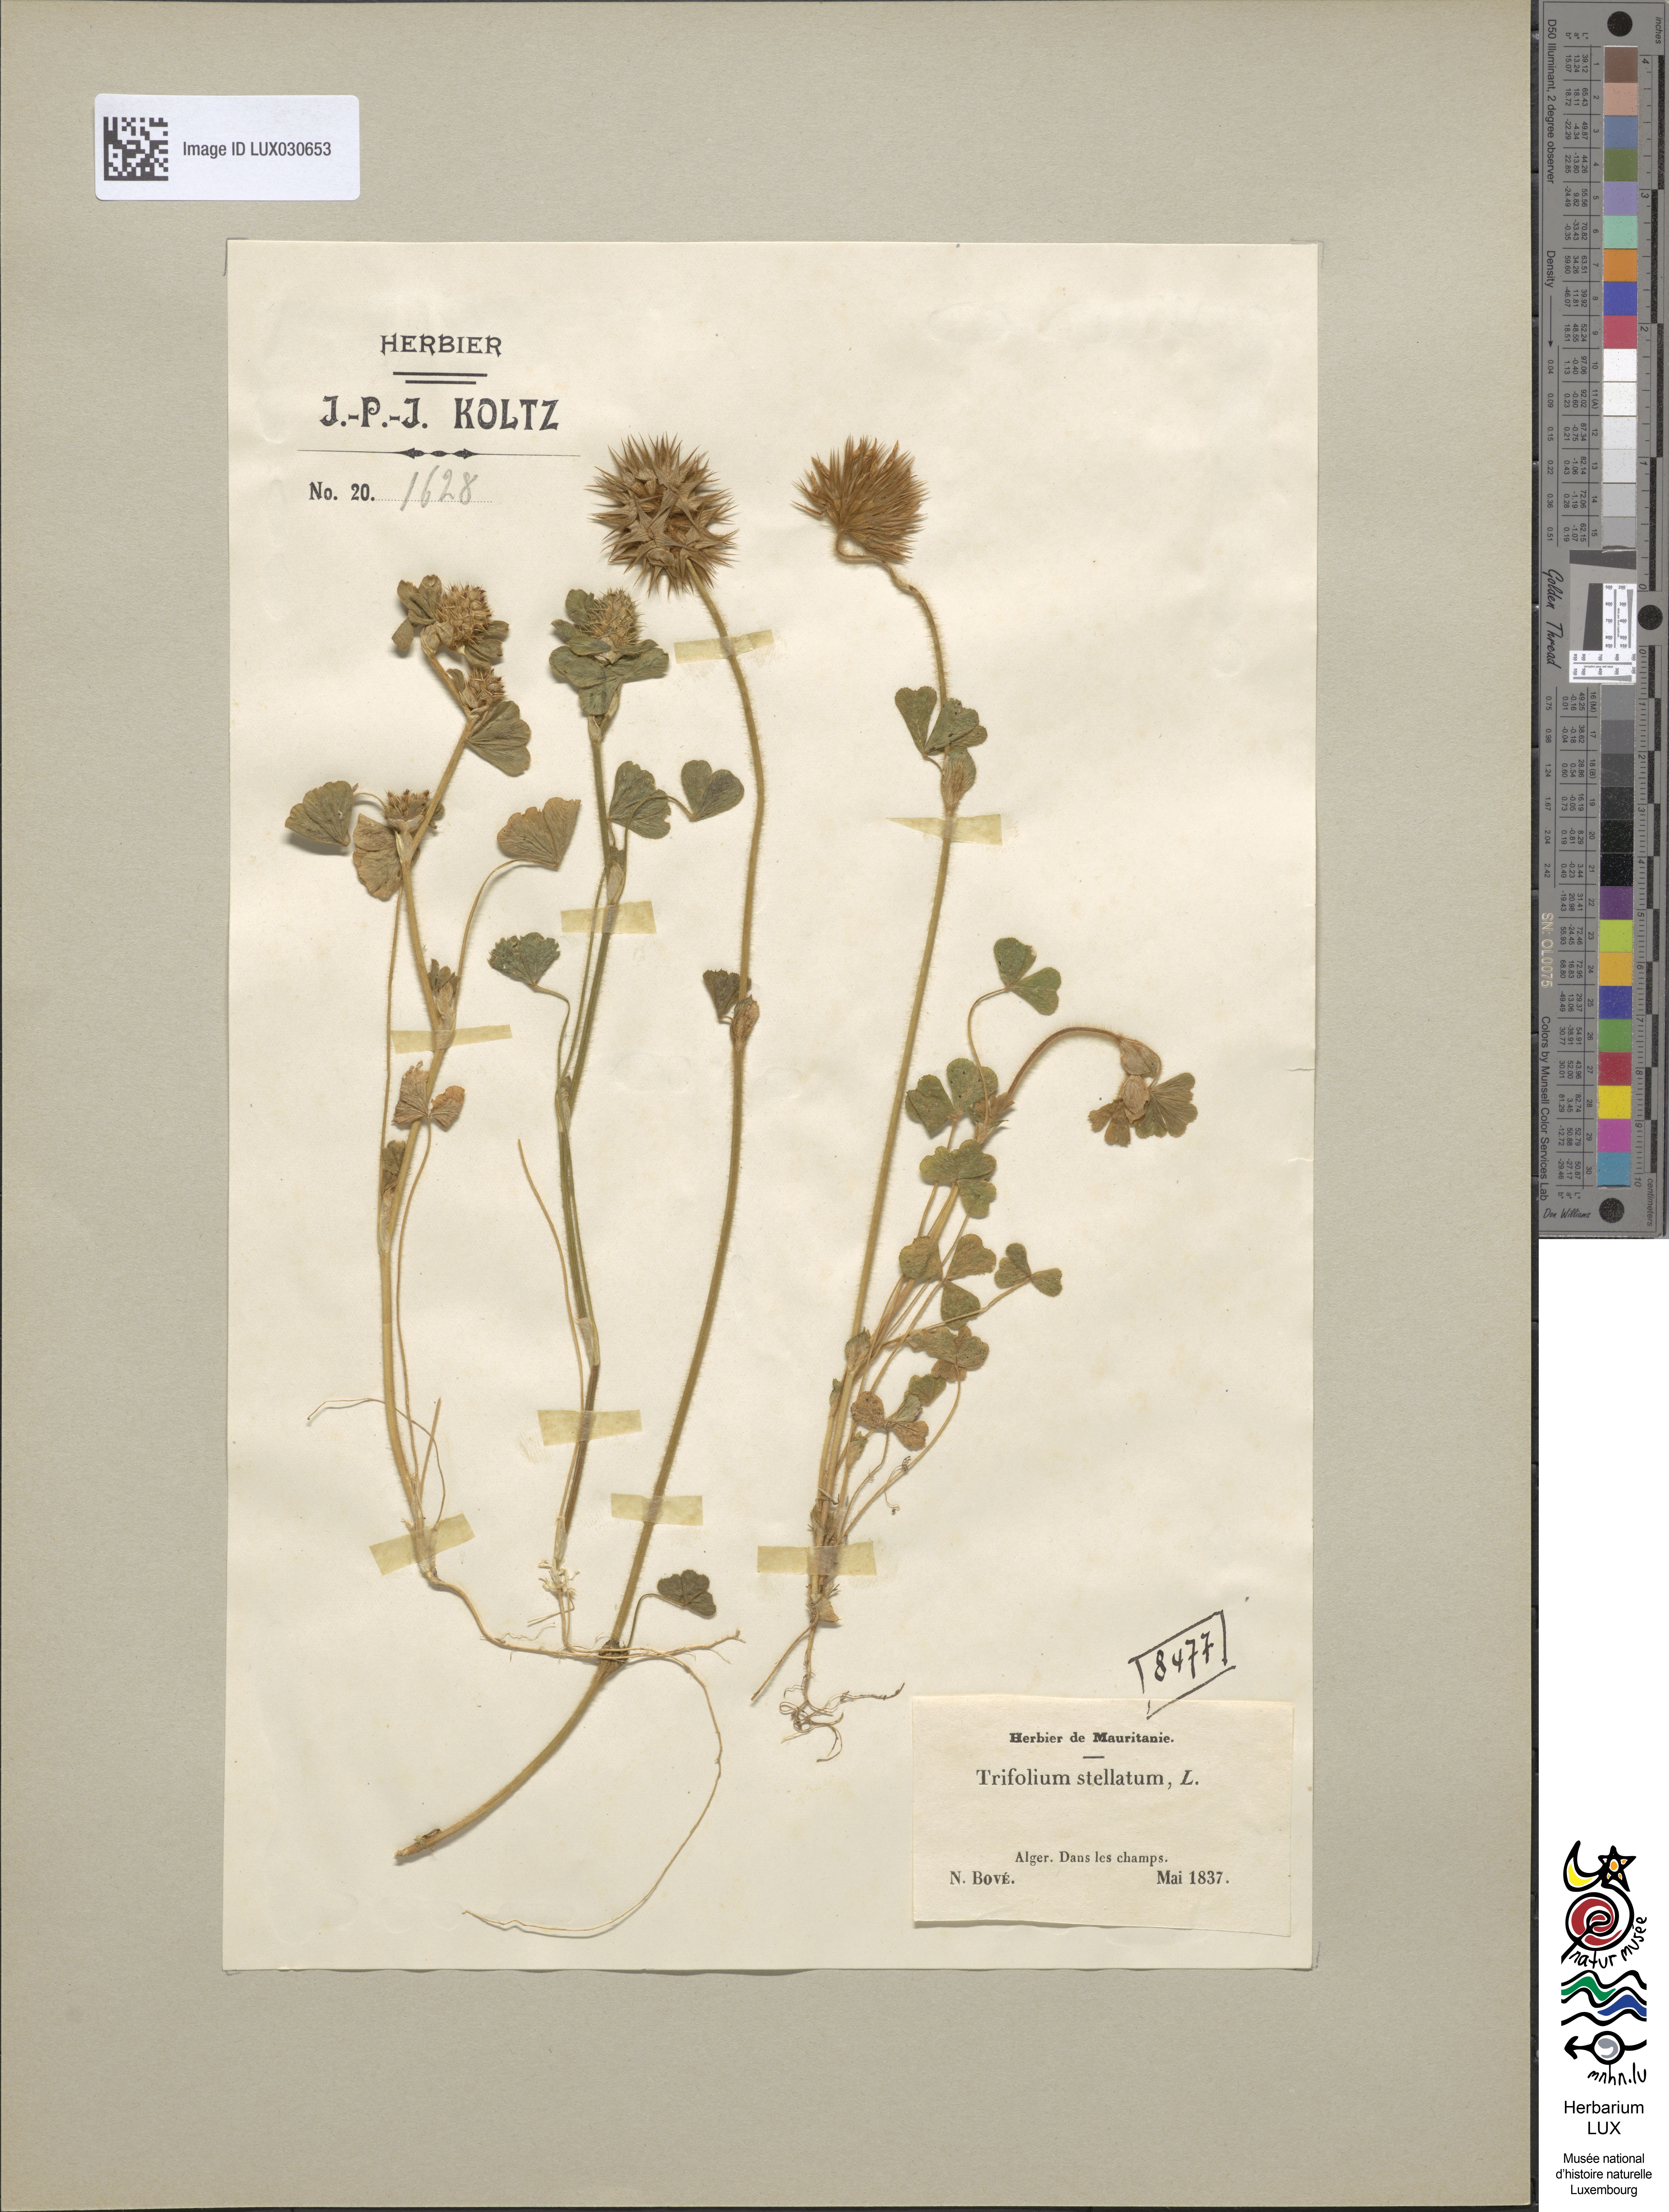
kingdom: Plantae
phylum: Tracheophyta
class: Magnoliopsida
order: Fabales
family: Fabaceae
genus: Trifolium
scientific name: Trifolium stellatum
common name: Starry clover
